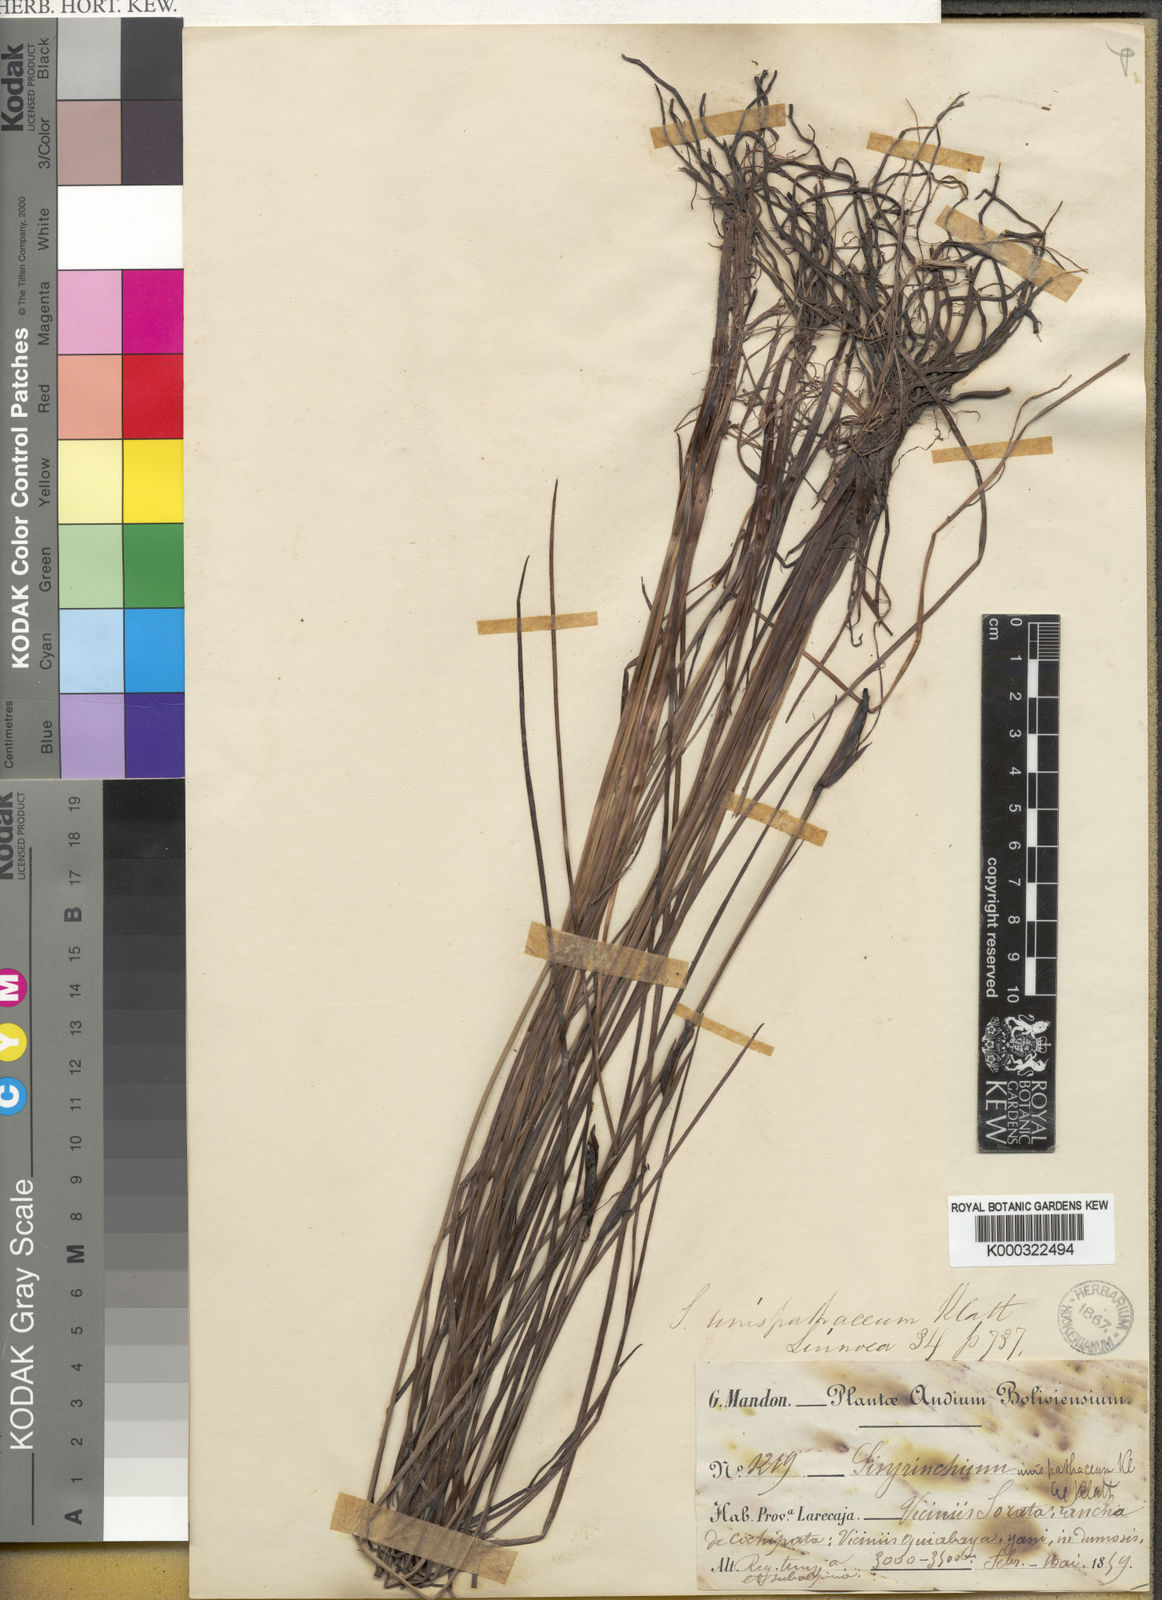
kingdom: Plantae
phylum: Tracheophyta
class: Liliopsida
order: Asparagales
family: Iridaceae
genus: Sisyrinchium
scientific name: Sisyrinchium unispathaceum
